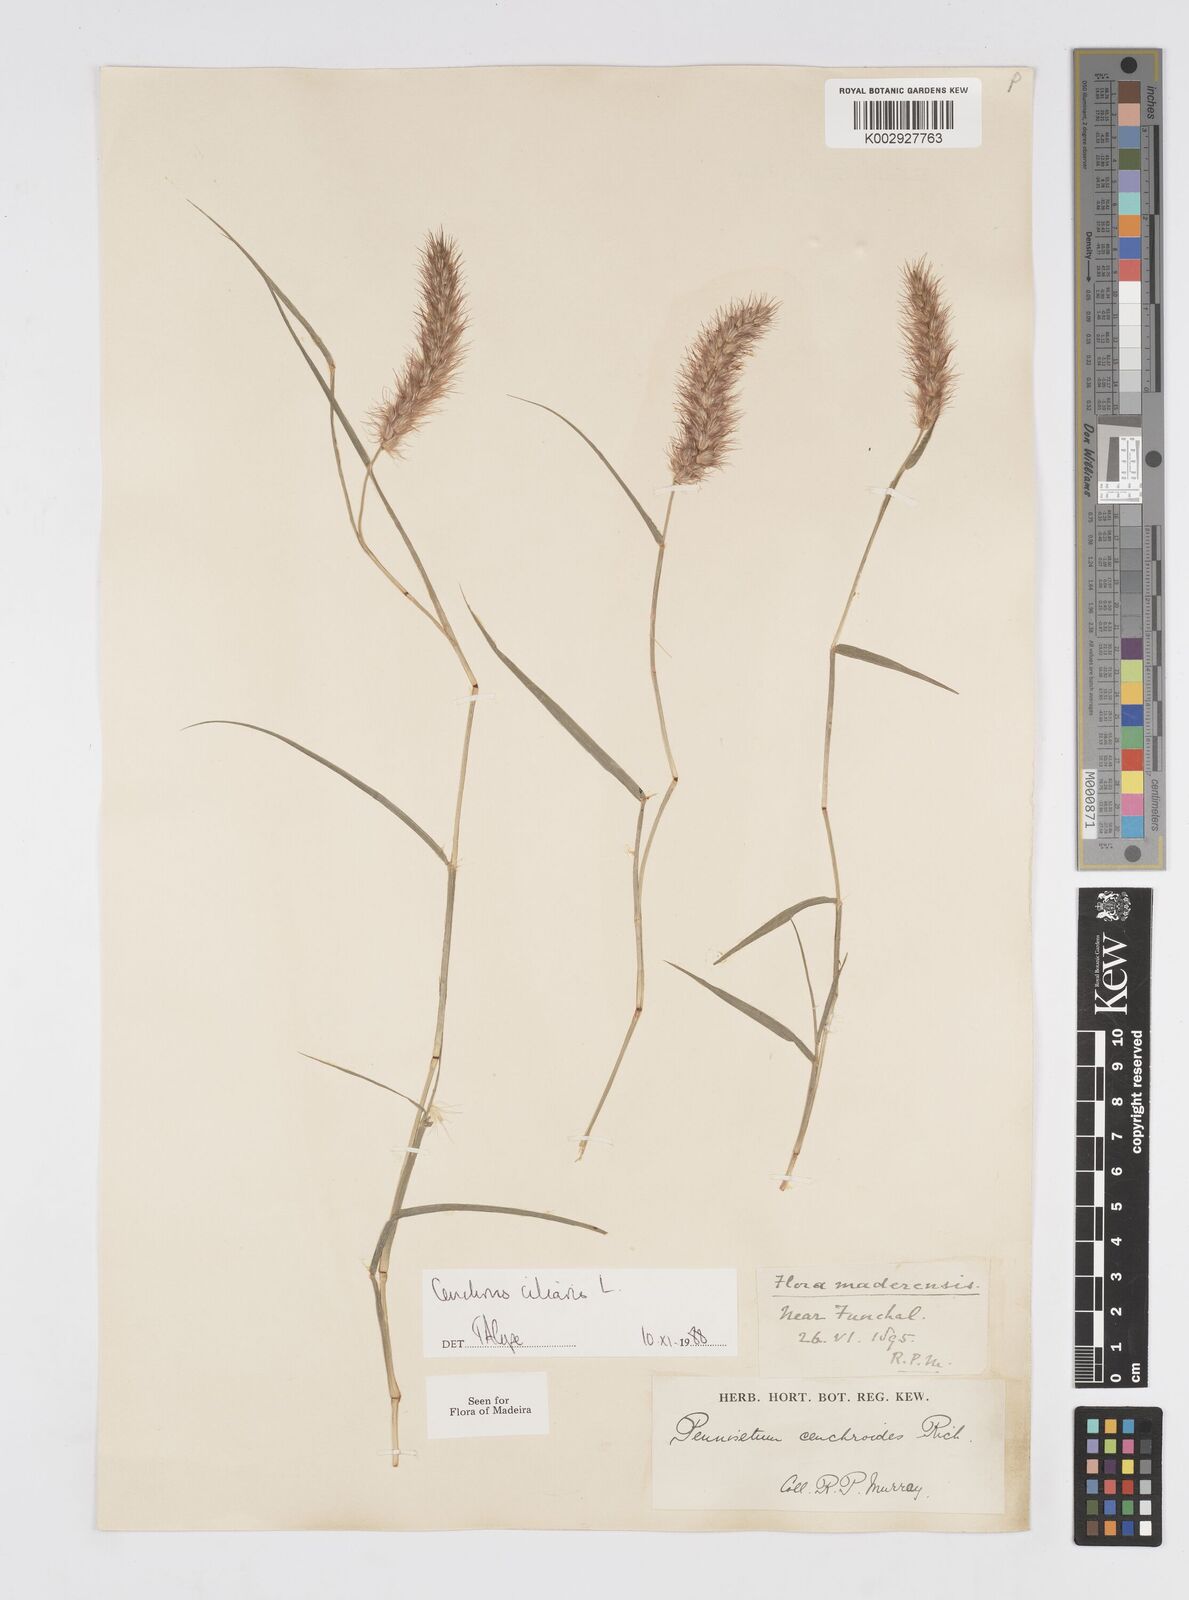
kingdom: Plantae
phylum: Tracheophyta
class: Liliopsida
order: Poales
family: Poaceae
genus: Cenchrus
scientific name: Cenchrus ciliaris
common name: Buffelgrass
